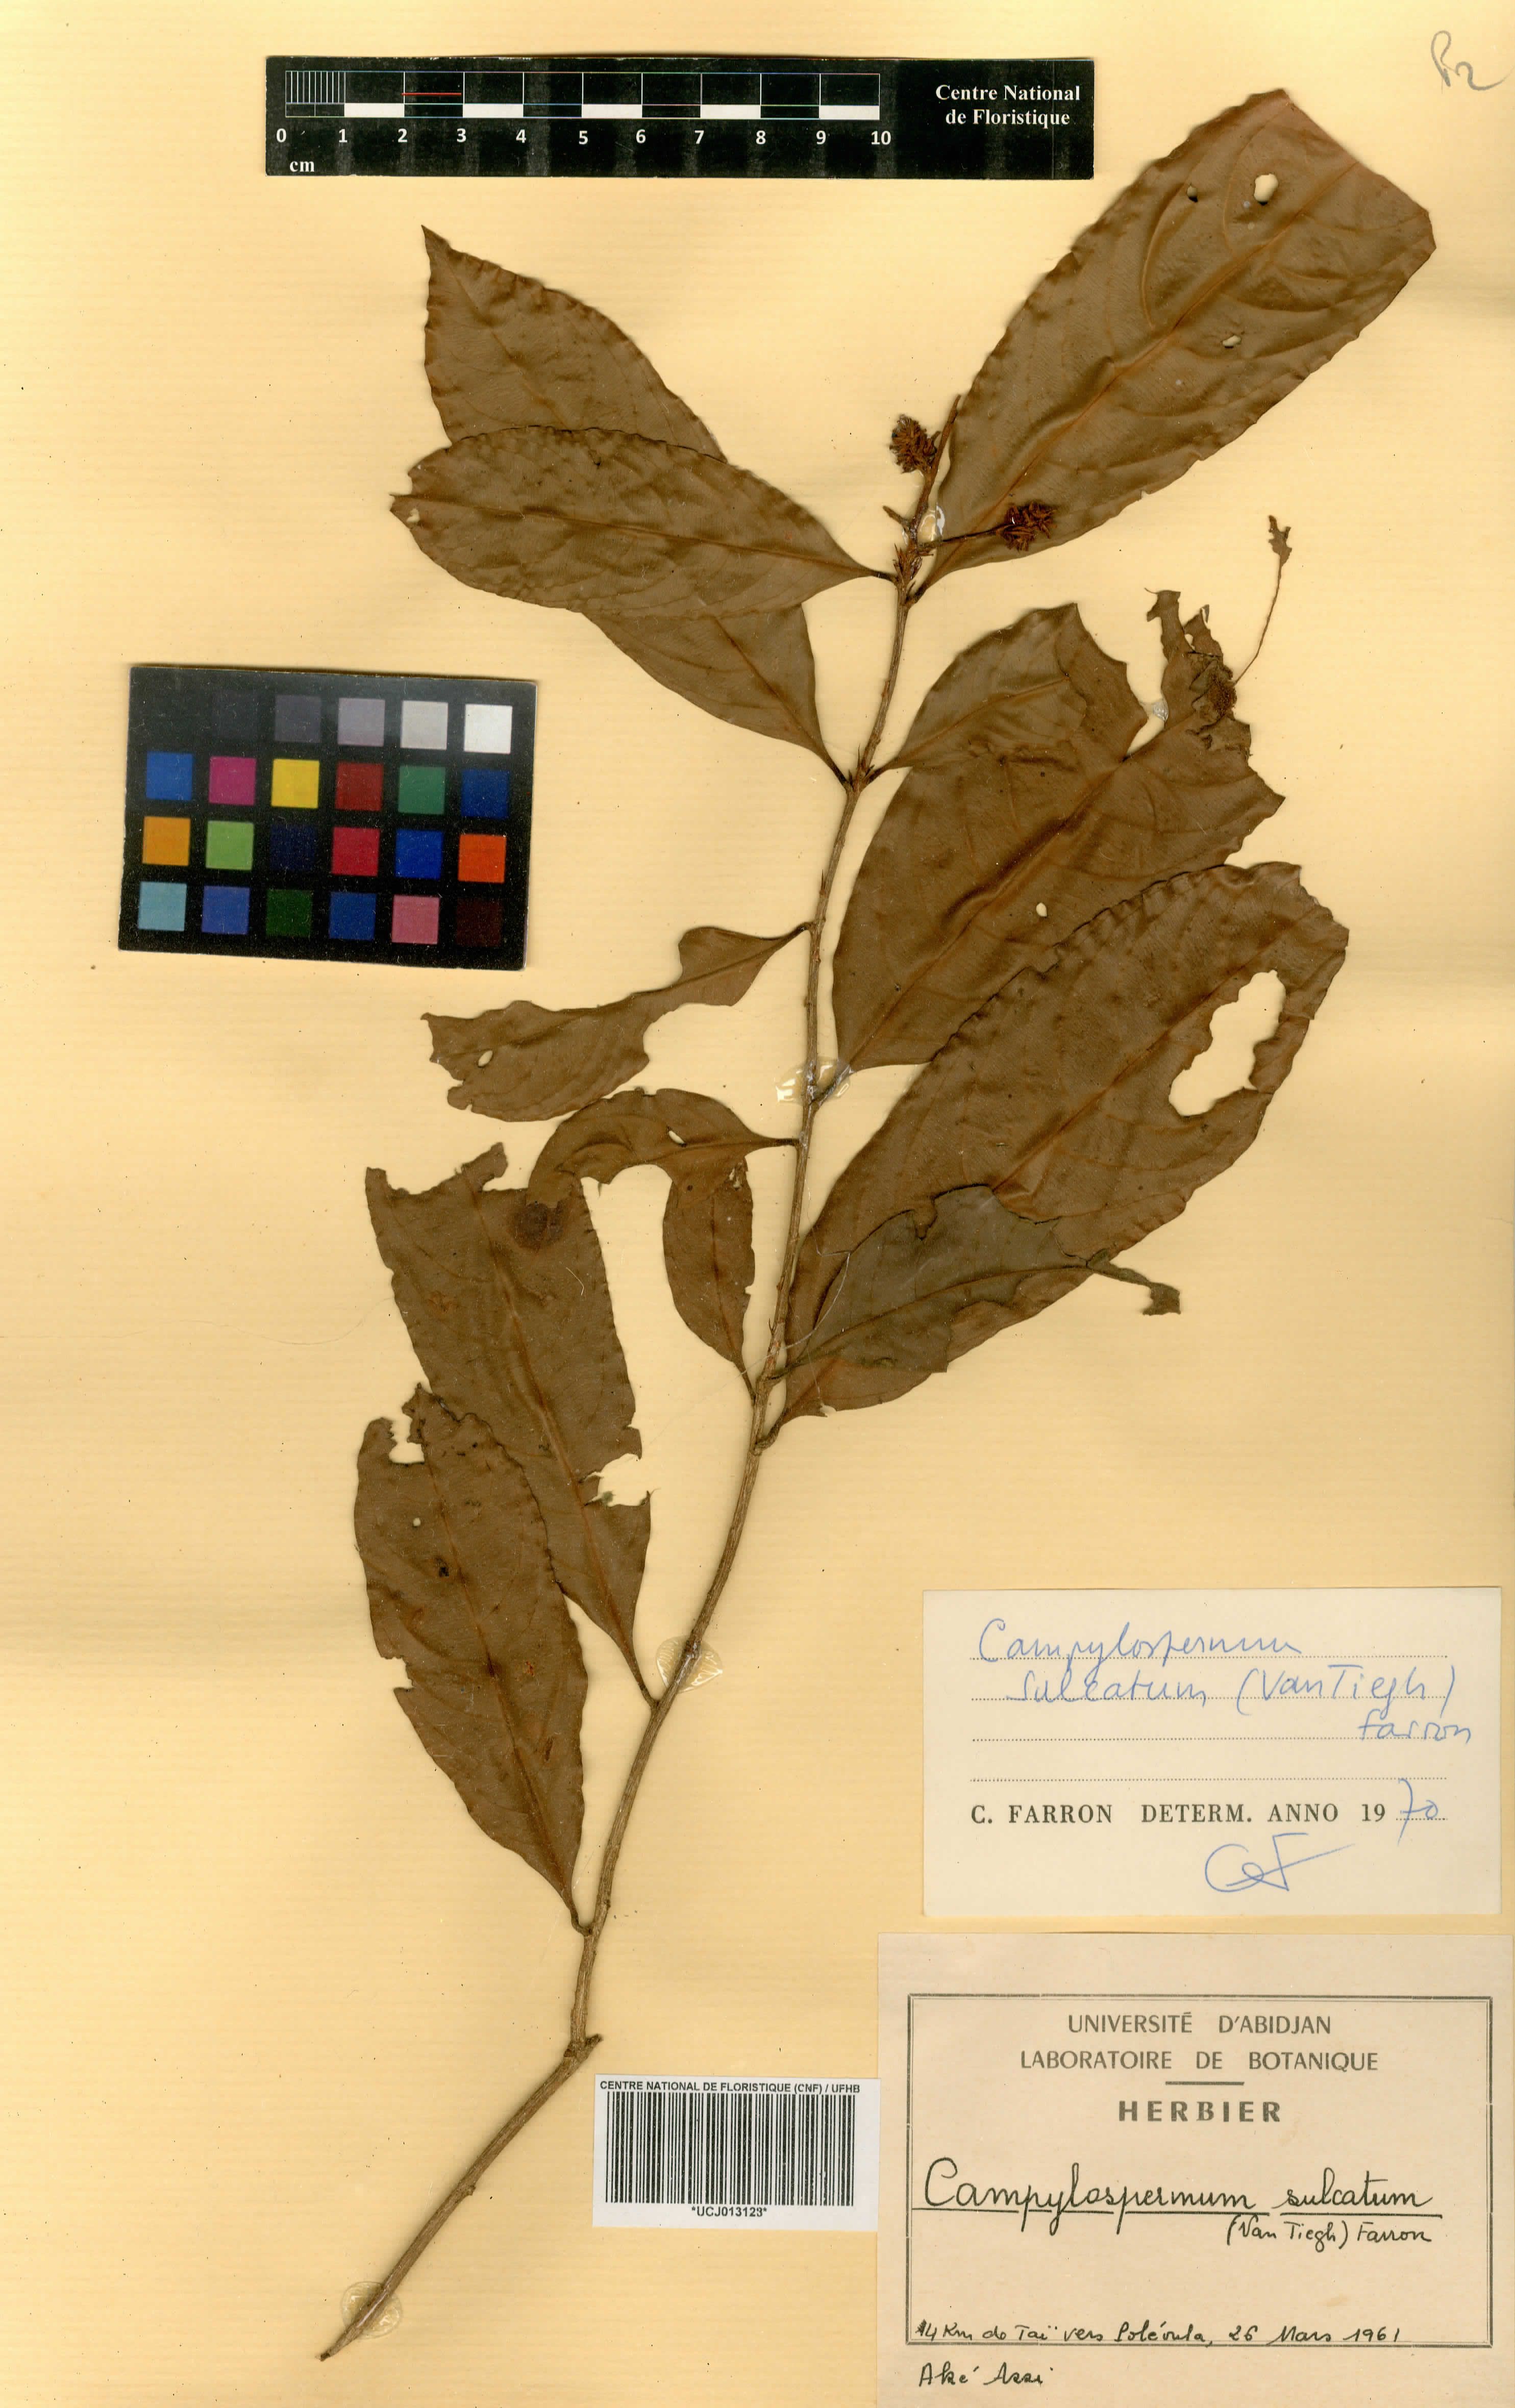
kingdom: Plantae
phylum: Tracheophyta
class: Magnoliopsida
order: Malpighiales
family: Ochnaceae
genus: Campylospermum
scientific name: Campylospermum sulcatum
